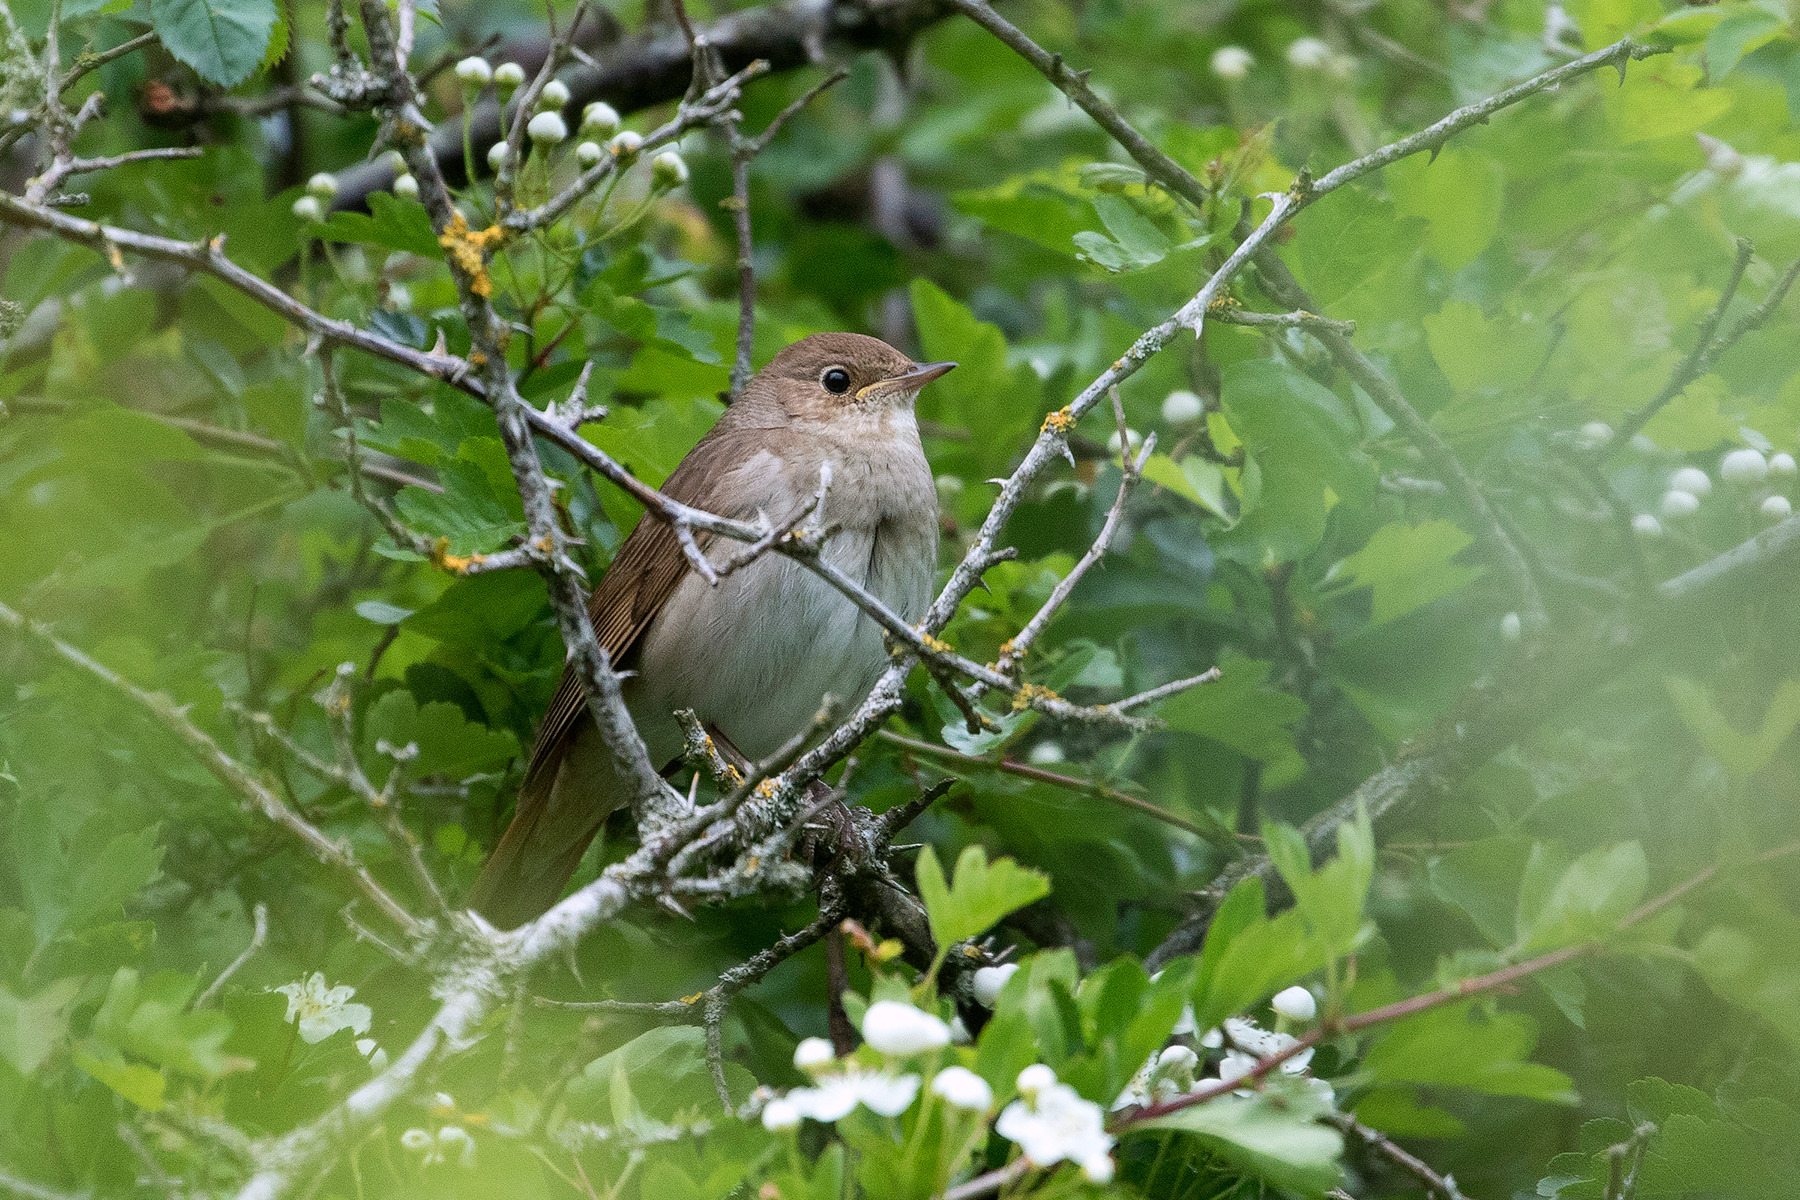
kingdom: Animalia
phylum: Chordata
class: Aves
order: Passeriformes
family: Muscicapidae
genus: Luscinia
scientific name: Luscinia luscinia
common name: Nattergal
